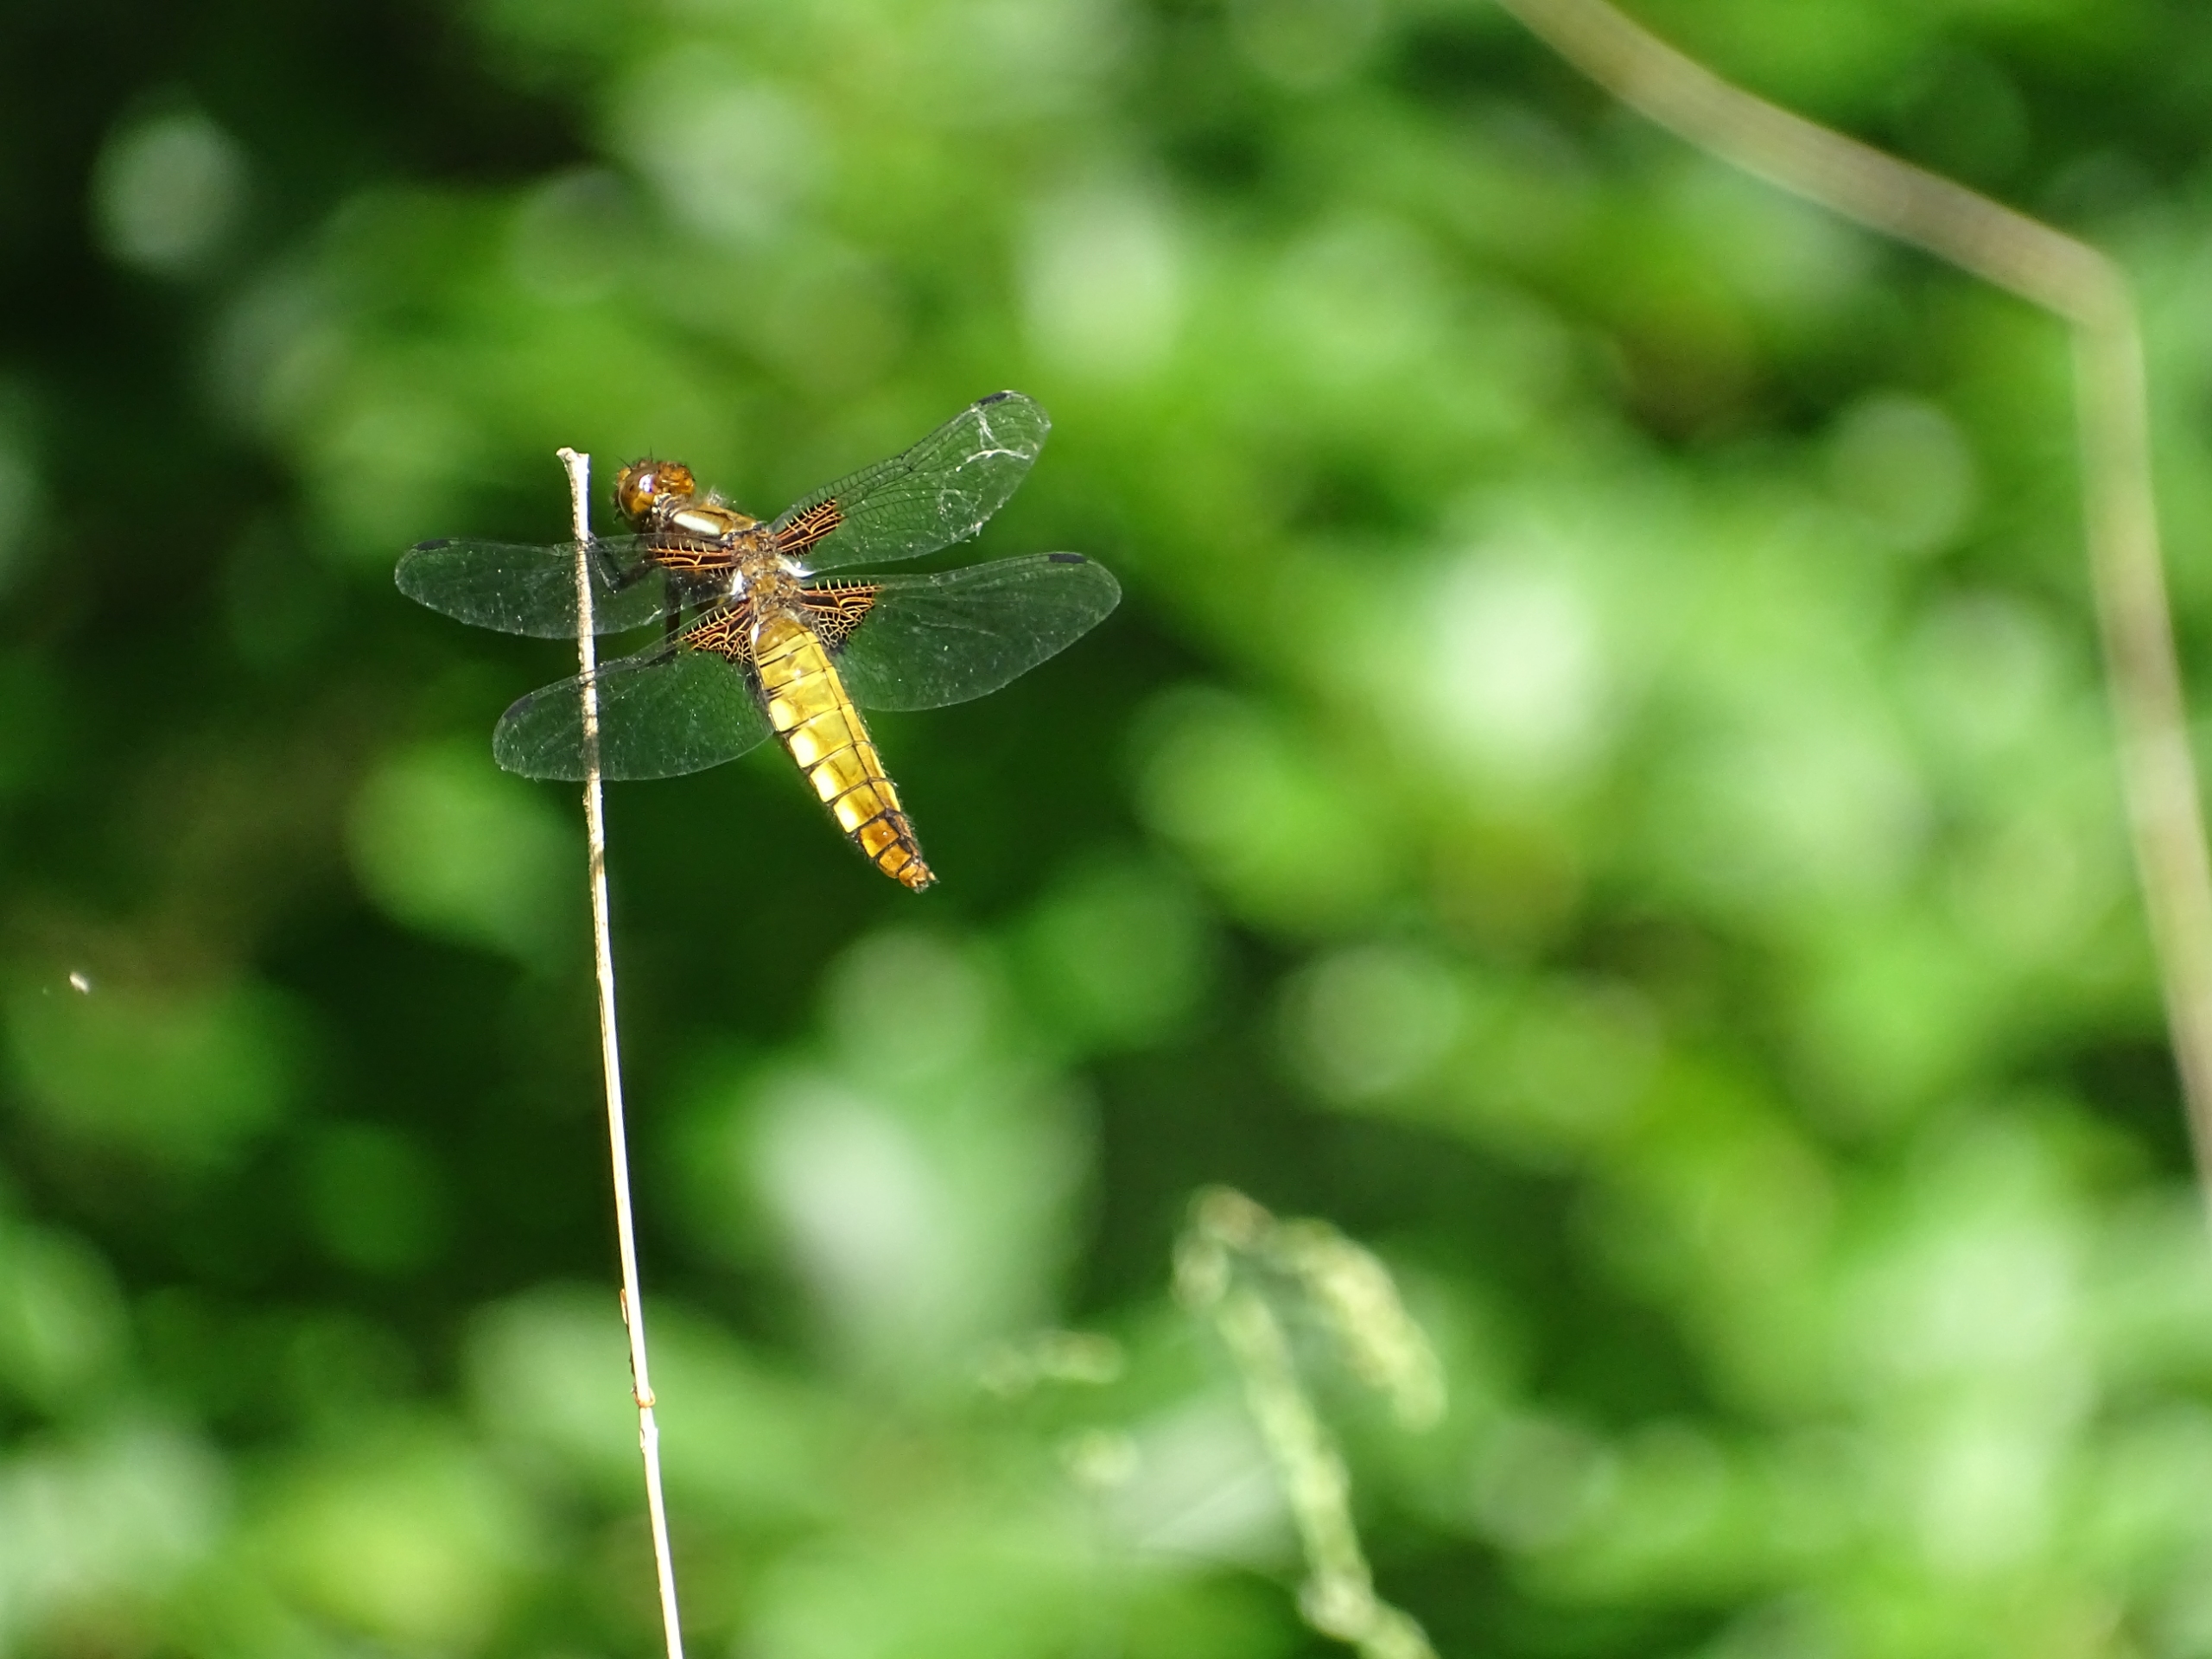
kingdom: Animalia
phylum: Arthropoda
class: Insecta
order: Odonata
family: Libellulidae
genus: Libellula
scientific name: Libellula depressa
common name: Blå libel
